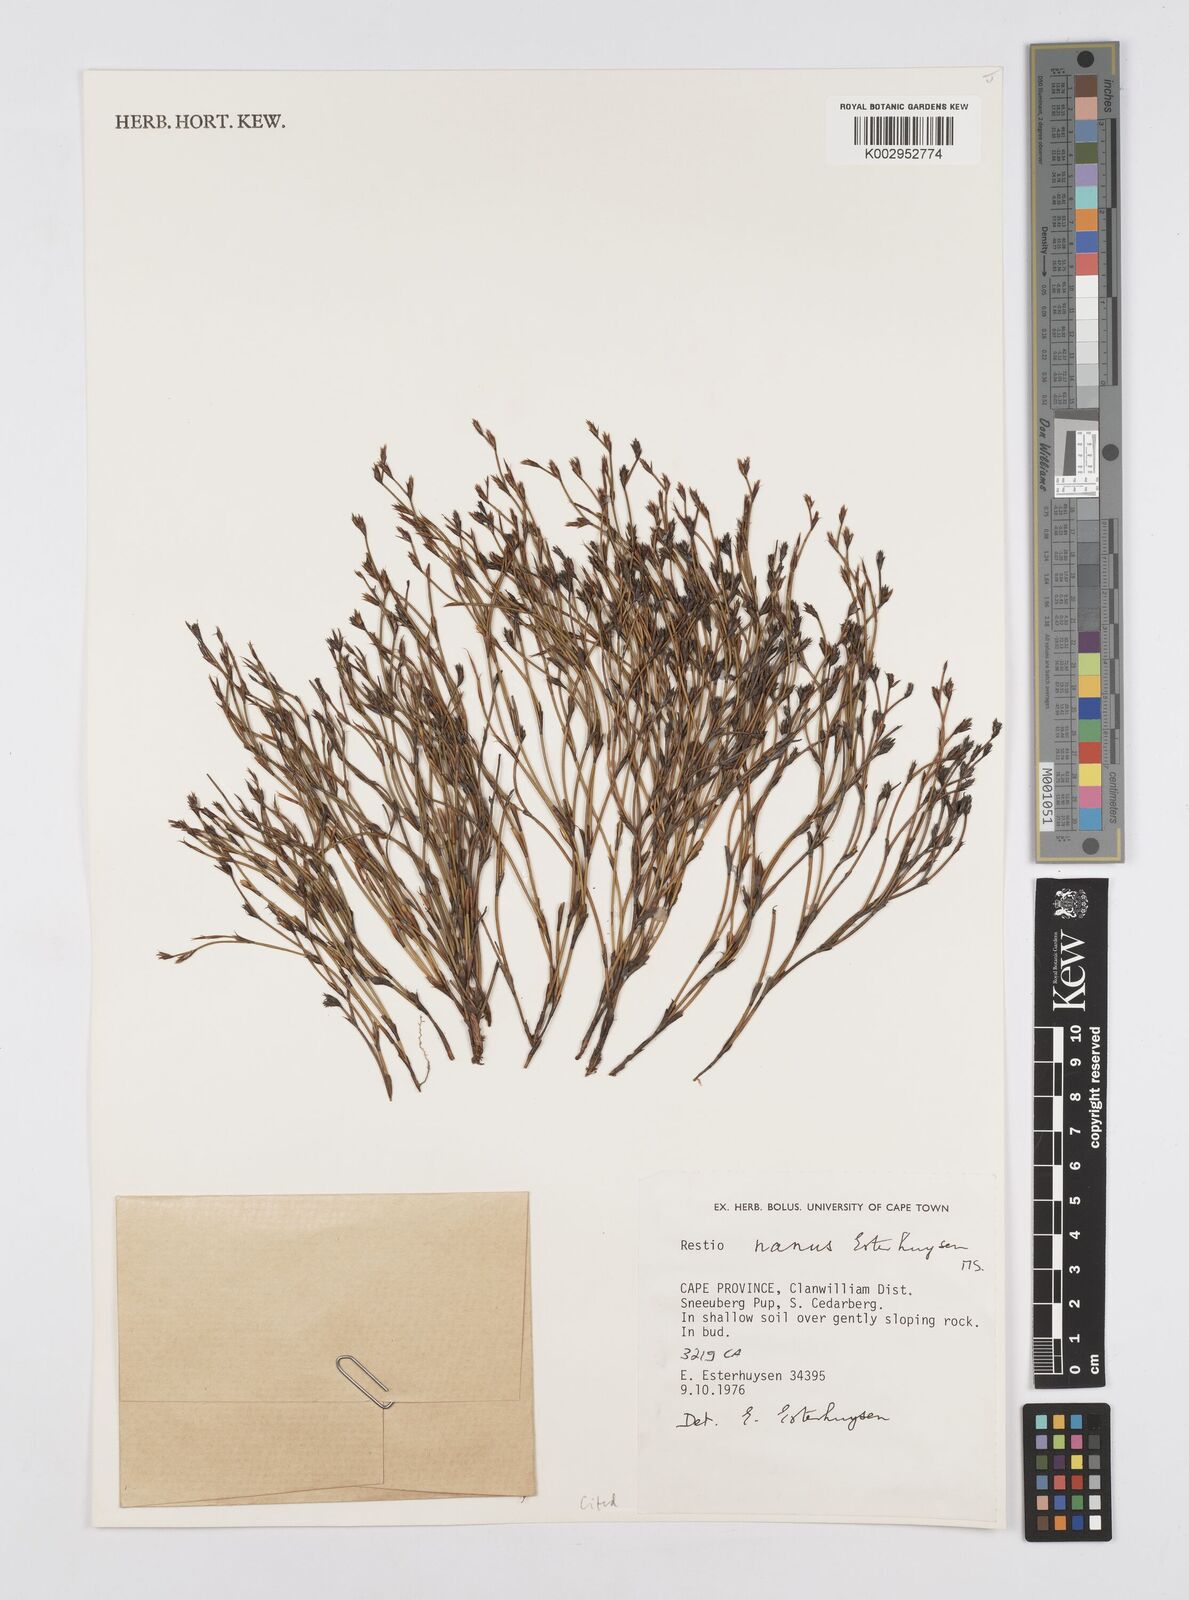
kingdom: Plantae
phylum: Tracheophyta
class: Liliopsida
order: Poales
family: Restionaceae
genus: Restio
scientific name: Restio nanus
